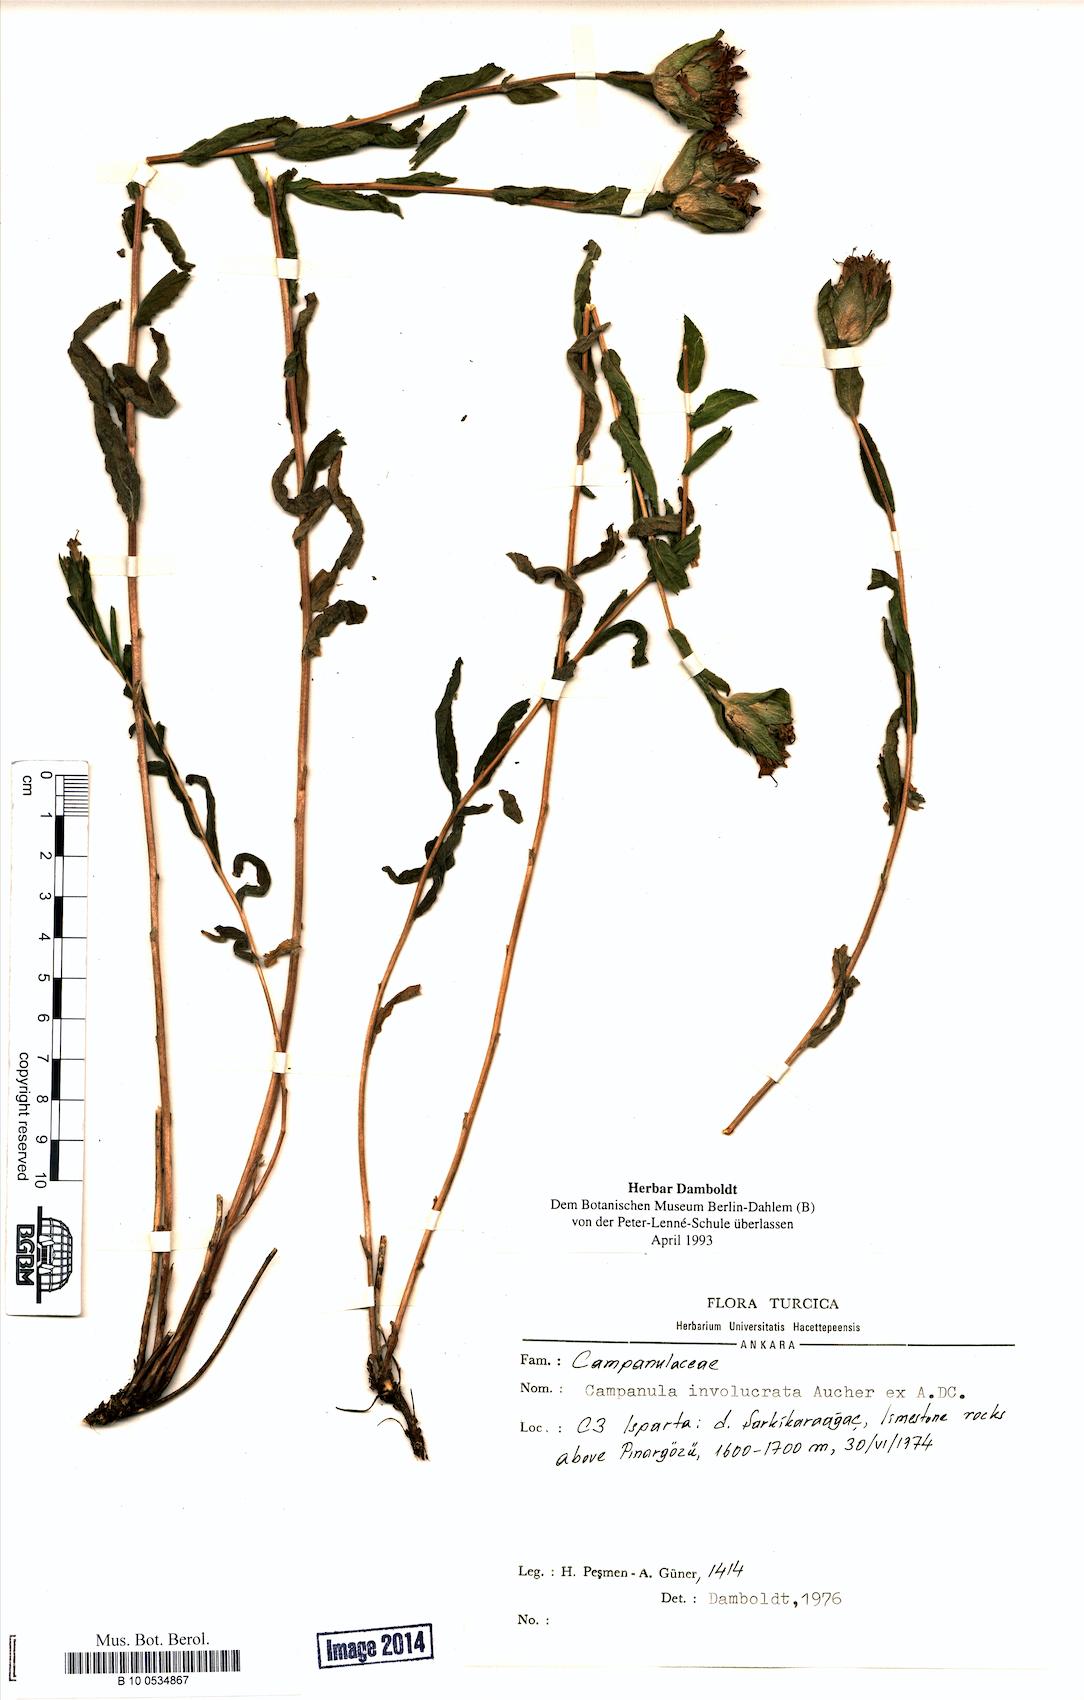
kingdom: Plantae
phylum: Tracheophyta
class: Magnoliopsida
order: Asterales
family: Campanulaceae
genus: Campanula
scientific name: Campanula involucrata
